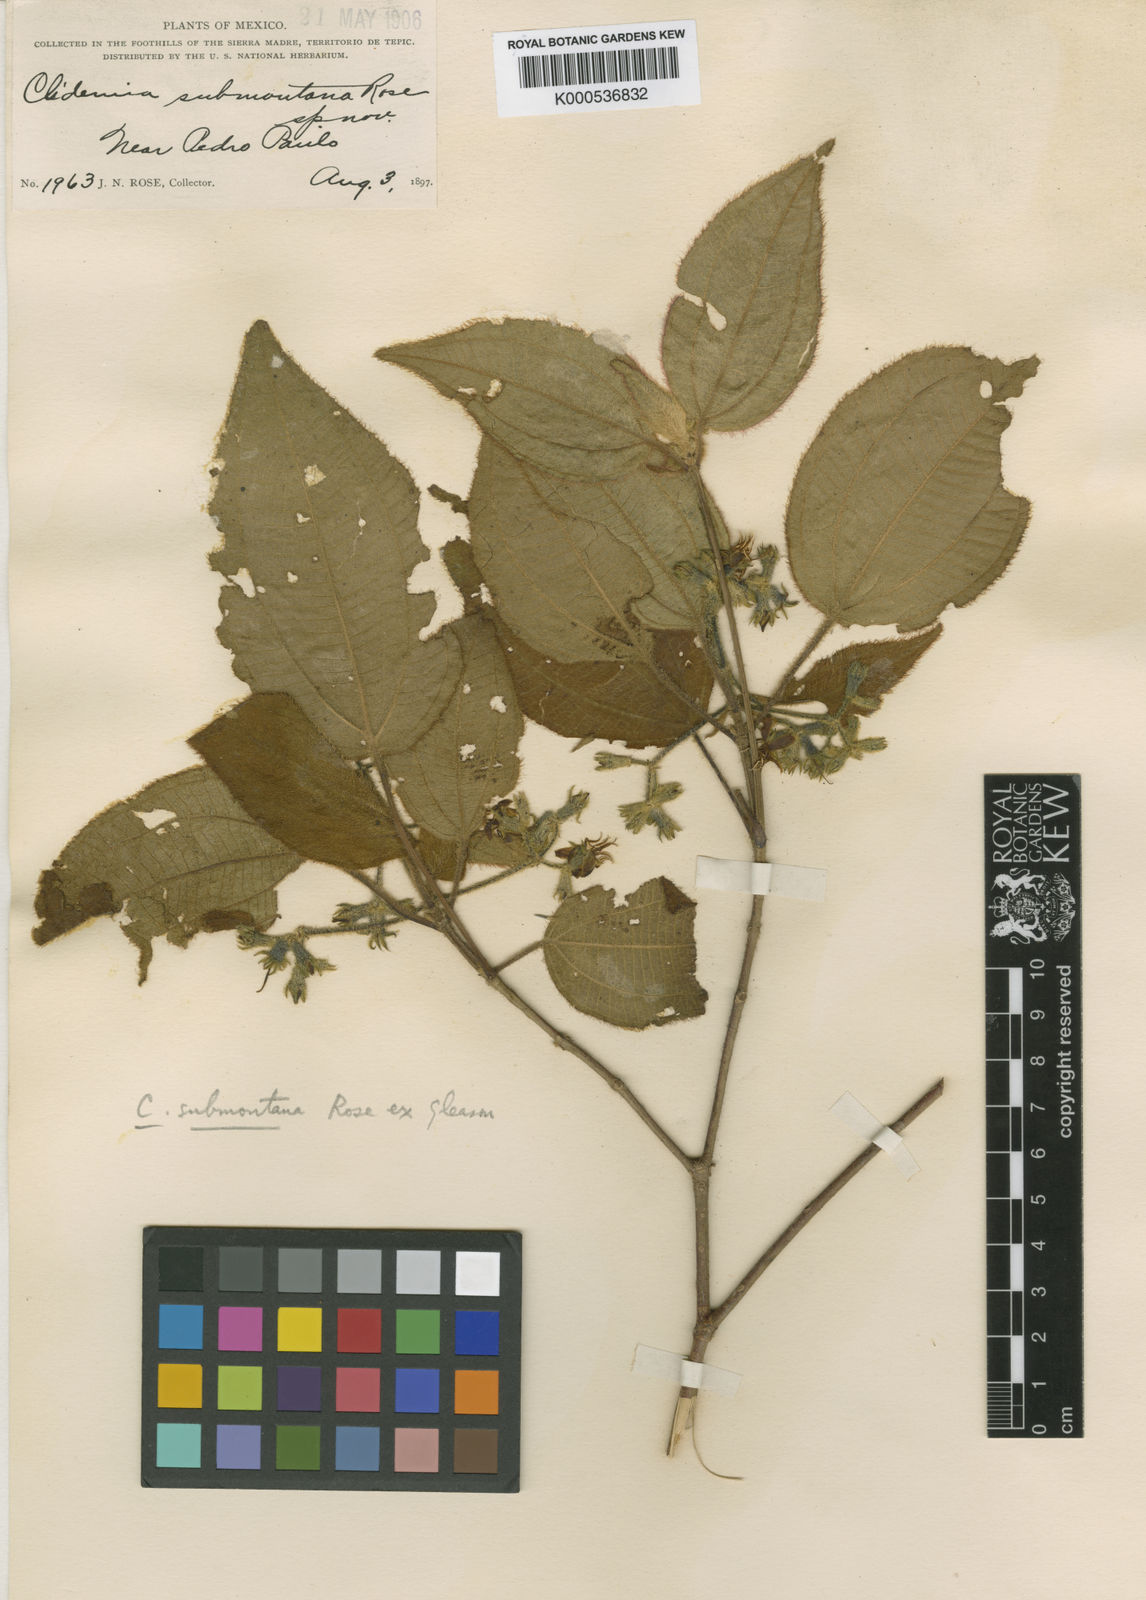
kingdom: Plantae
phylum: Tracheophyta
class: Magnoliopsida
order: Myrtales
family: Melastomataceae
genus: Miconia
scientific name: Miconia submontana
